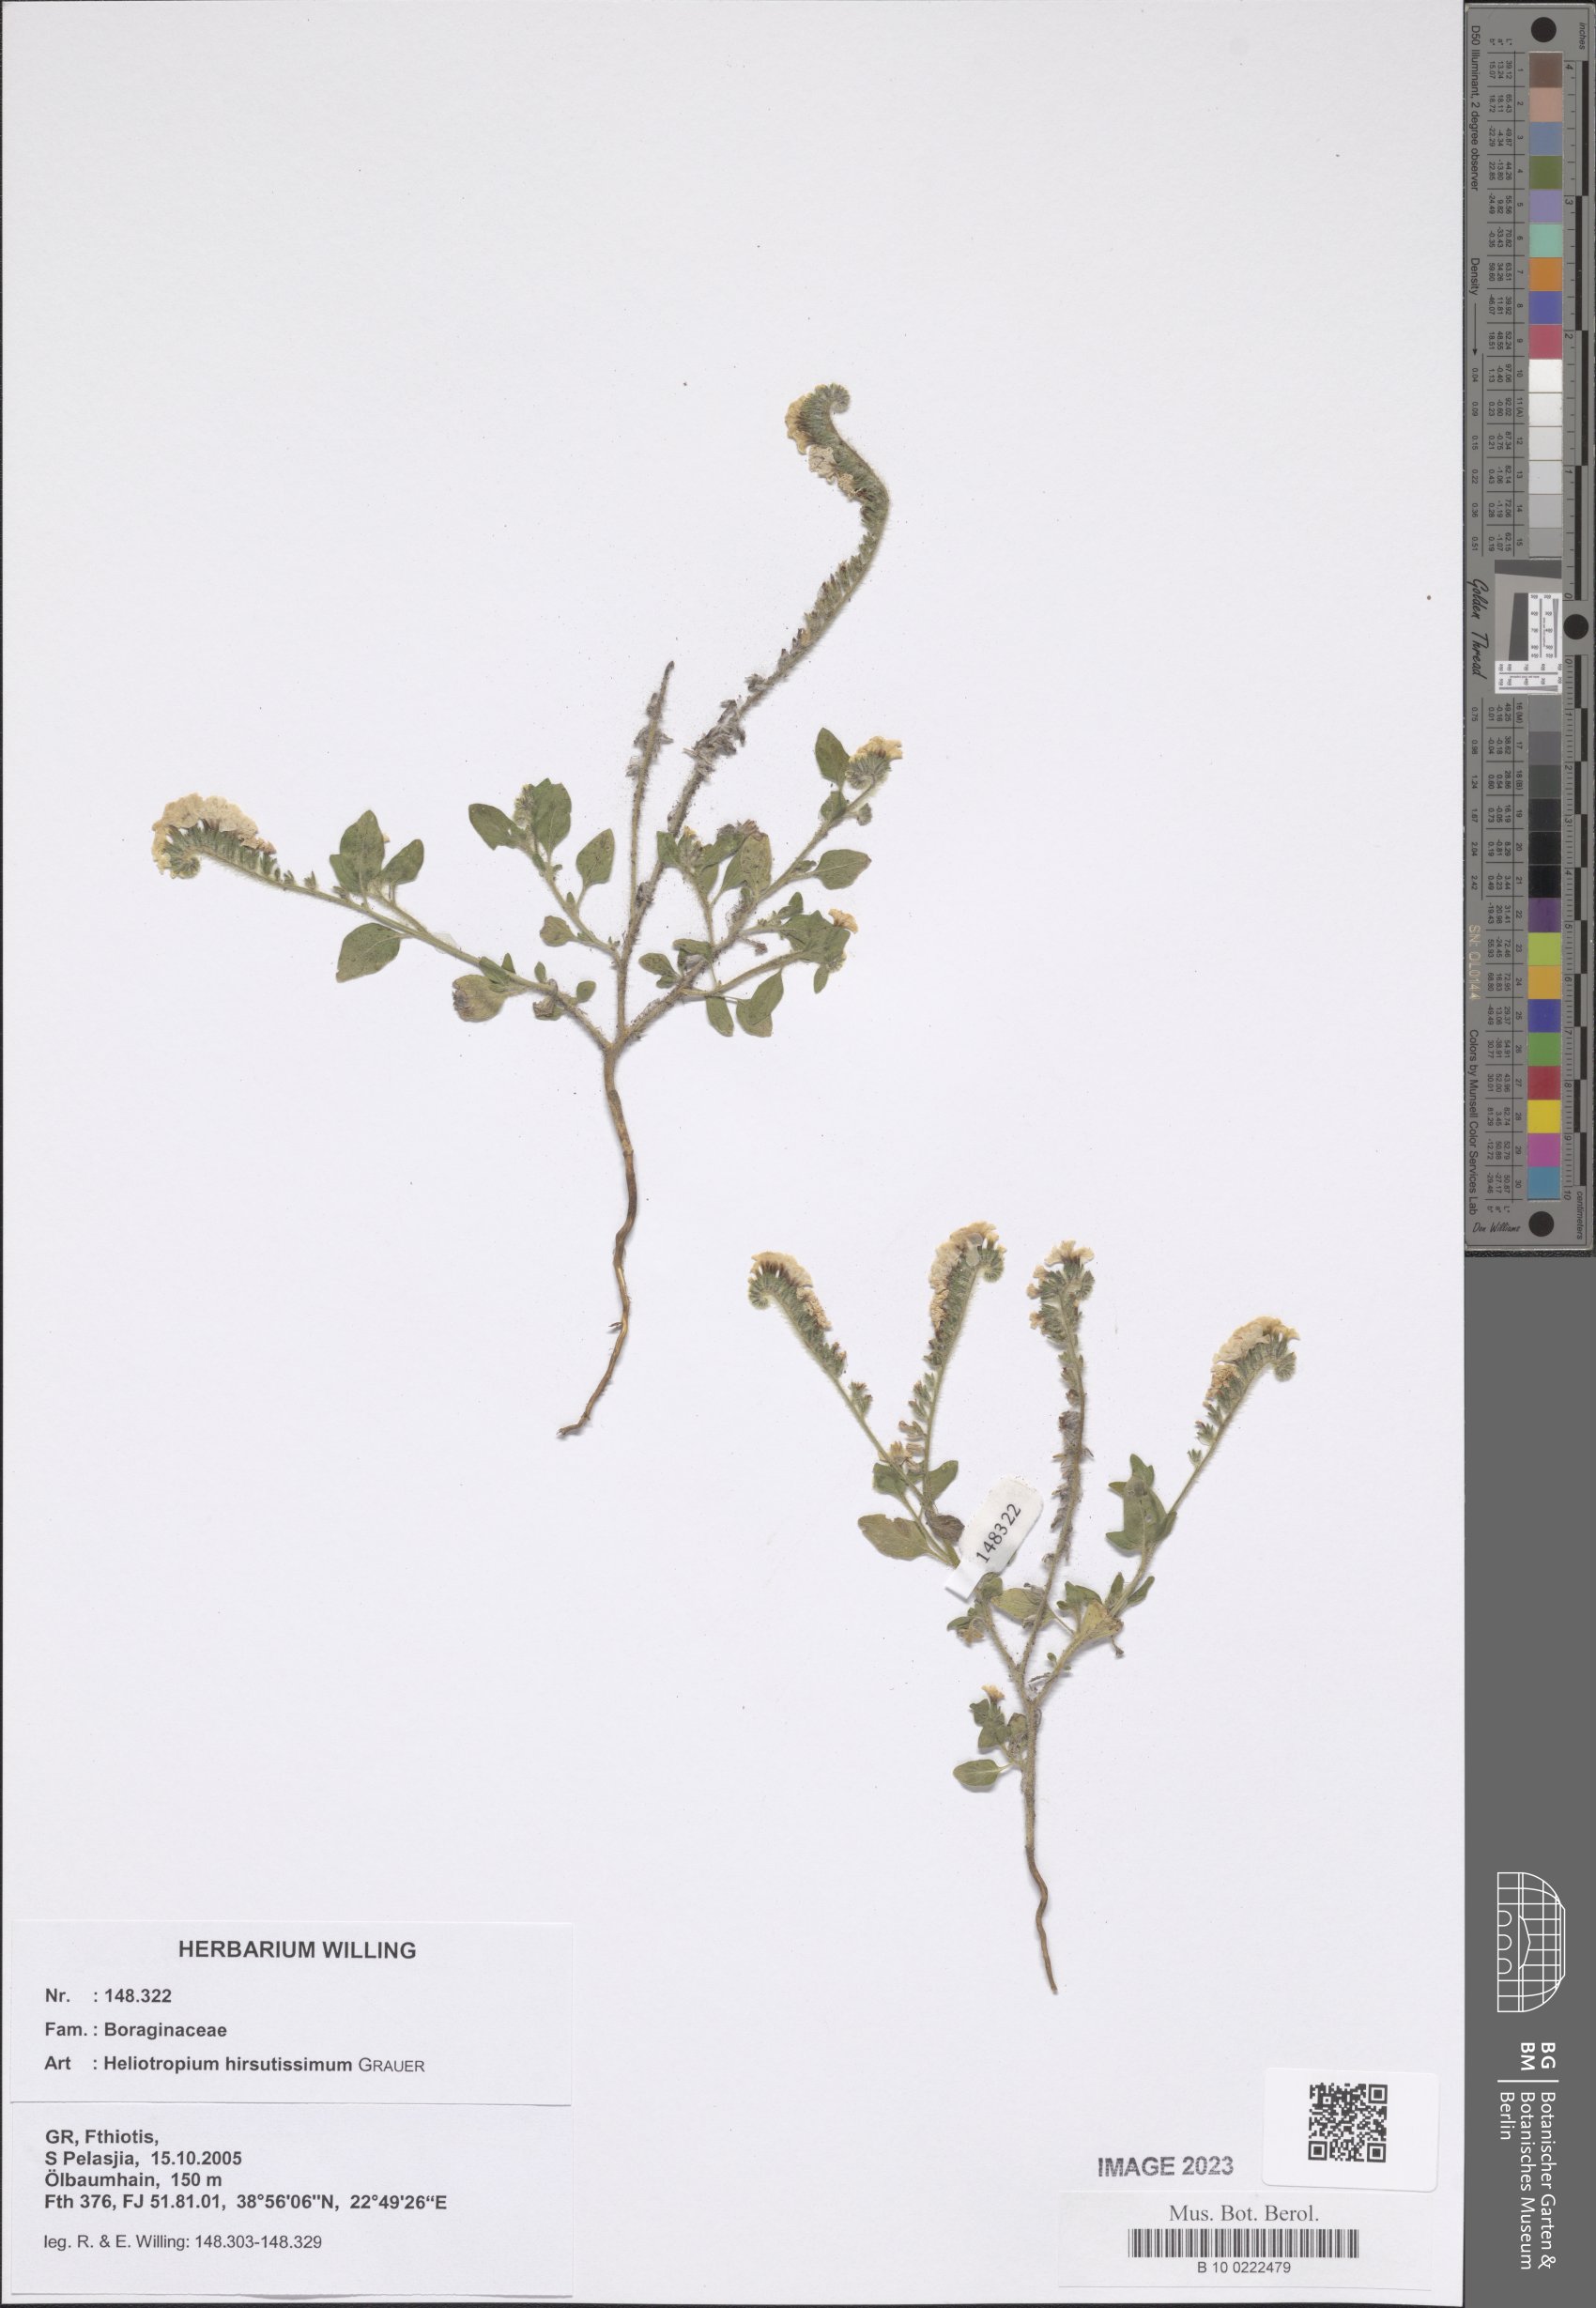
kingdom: Plantae
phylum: Tracheophyta
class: Magnoliopsida
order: Boraginales
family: Heliotropiaceae
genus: Heliotropium
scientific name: Heliotropium hirsutissimum
